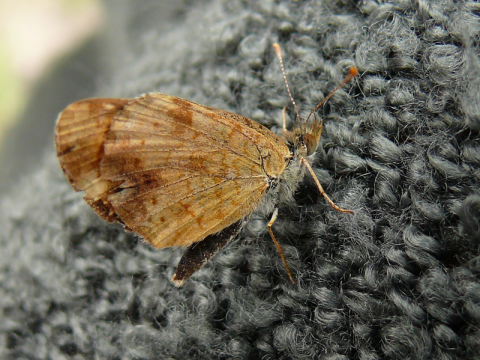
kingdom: Animalia
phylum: Arthropoda
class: Insecta
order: Lepidoptera
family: Nymphalidae
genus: Phyciodes
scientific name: Phyciodes tharos
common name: Field Crescent
